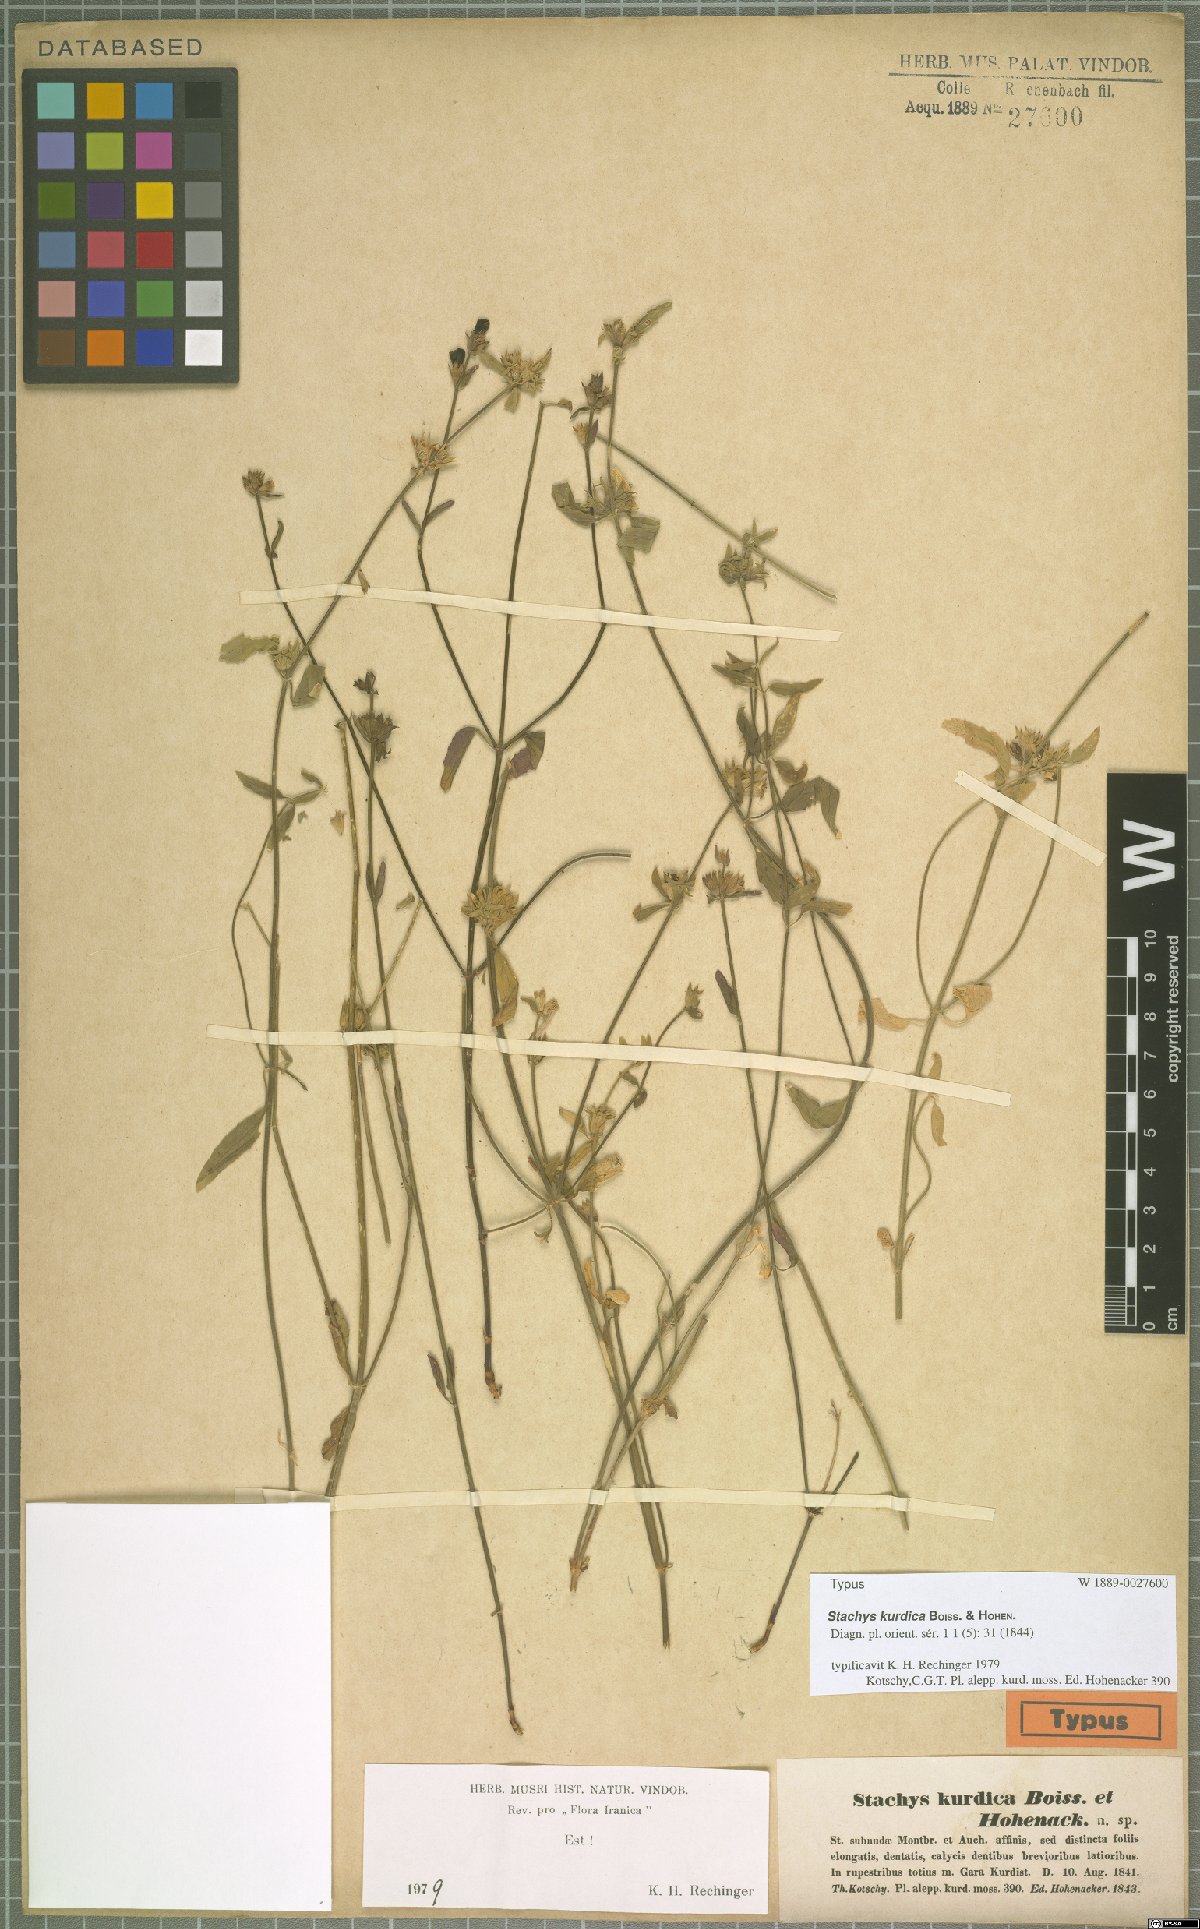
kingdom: Plantae
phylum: Tracheophyta
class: Magnoliopsida
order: Lamiales
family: Lamiaceae
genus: Stachys
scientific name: Stachys kurdica
